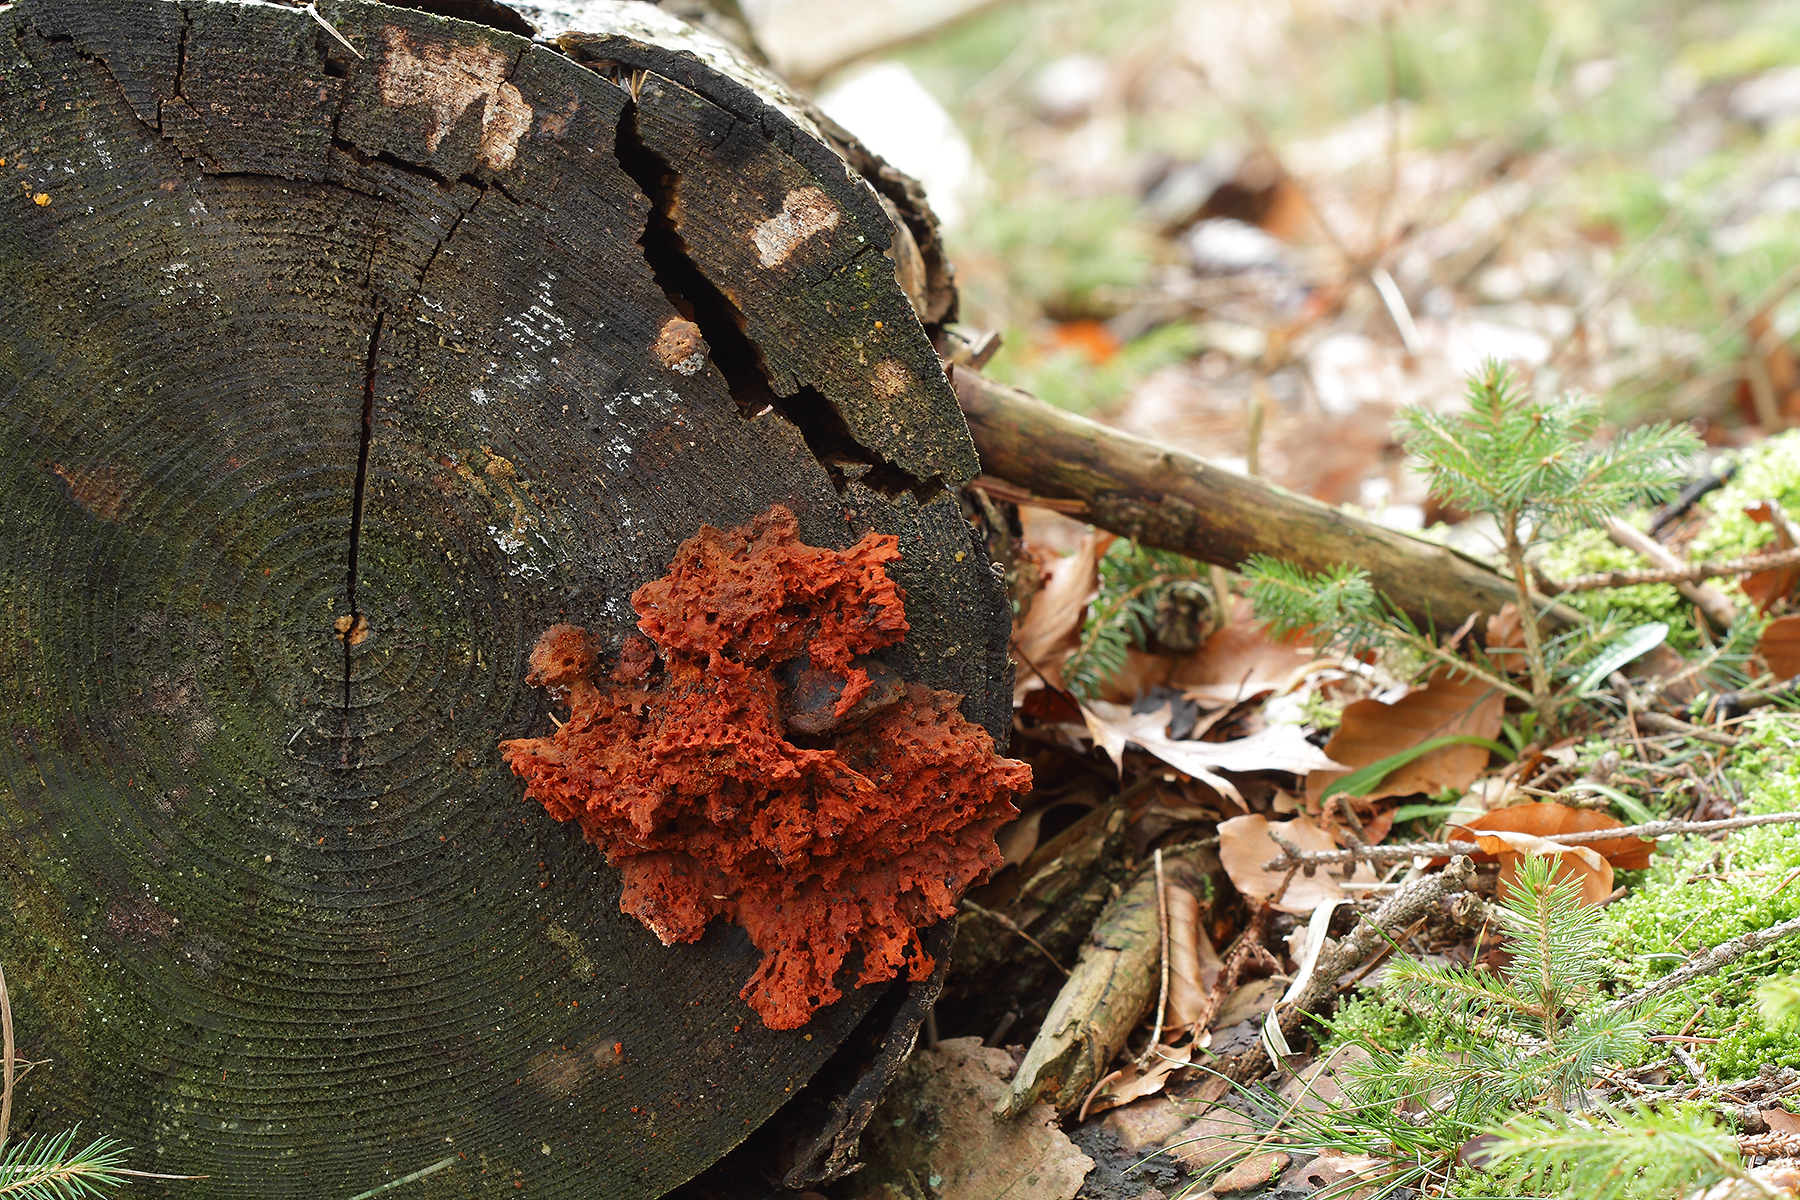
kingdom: Fungi
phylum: Basidiomycota
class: Agaricomycetes
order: Polyporales
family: Pycnoporellaceae
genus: Pycnoporellus
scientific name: Pycnoporellus fulgens
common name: flammeporesvamp
